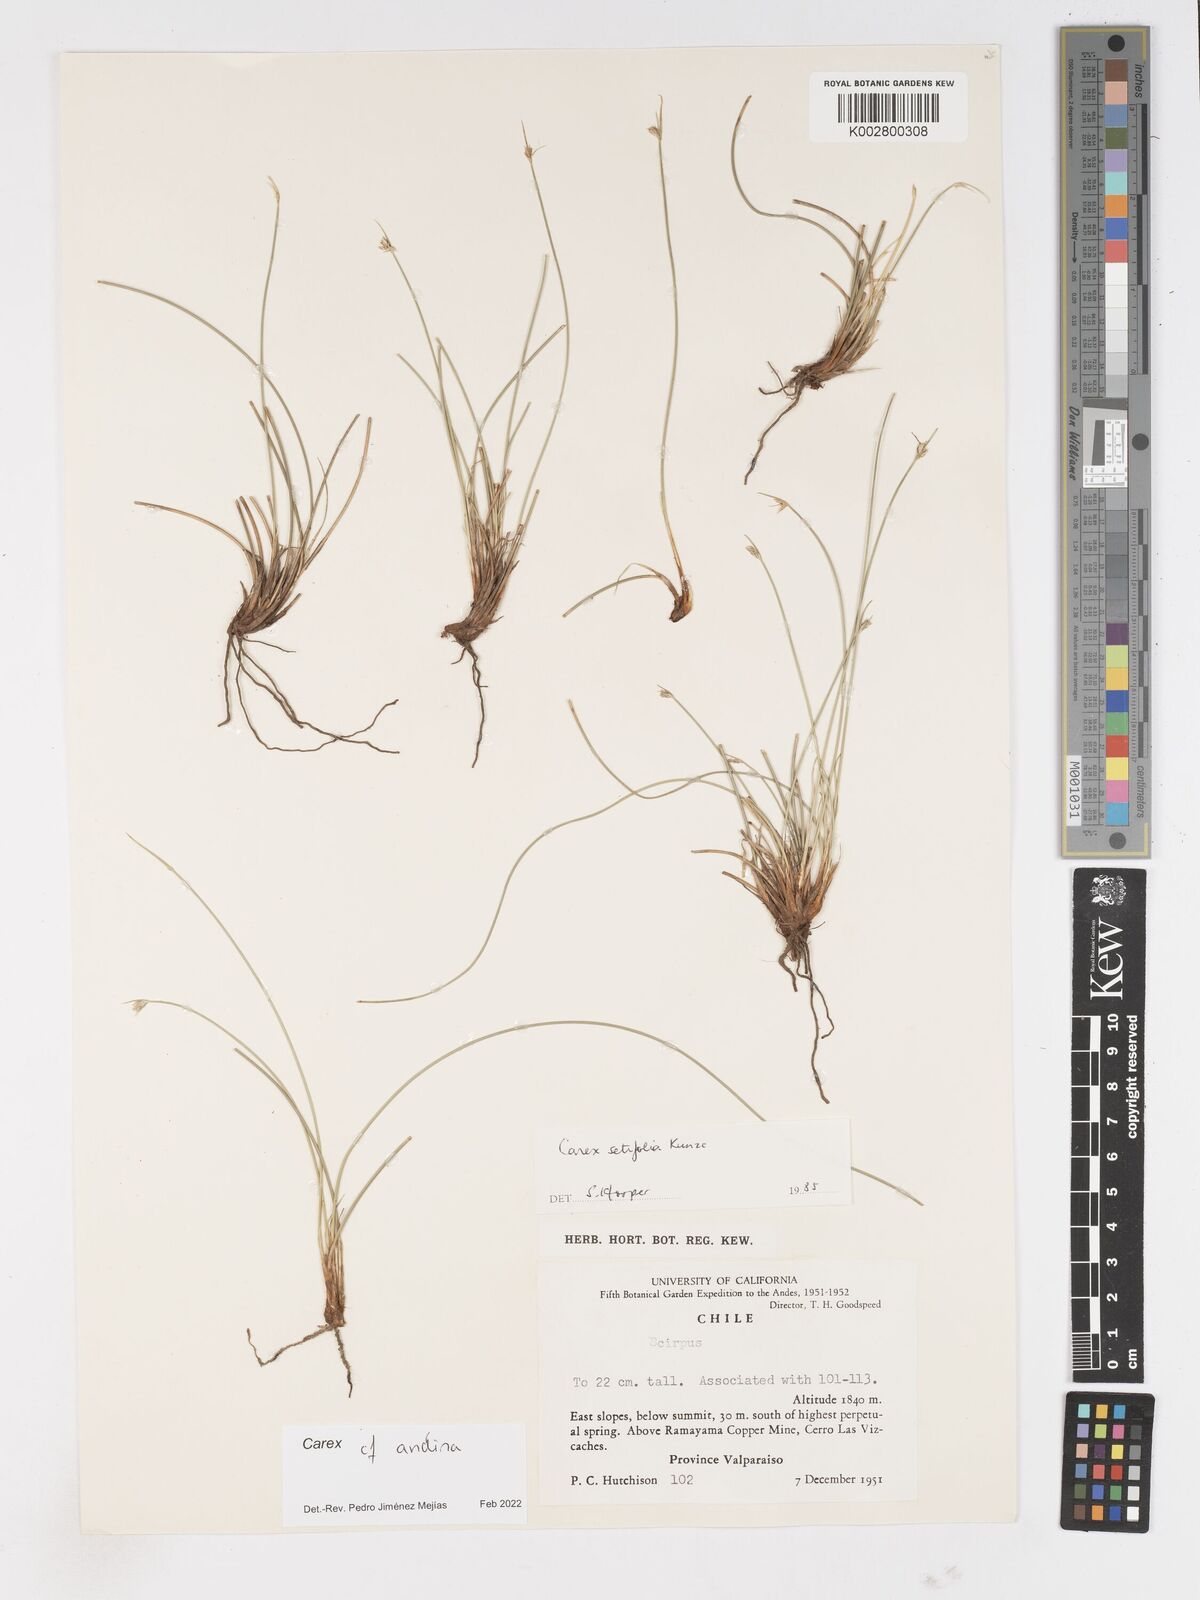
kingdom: Plantae
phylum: Tracheophyta
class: Liliopsida
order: Poales
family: Cyperaceae
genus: Carex
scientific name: Carex andina
